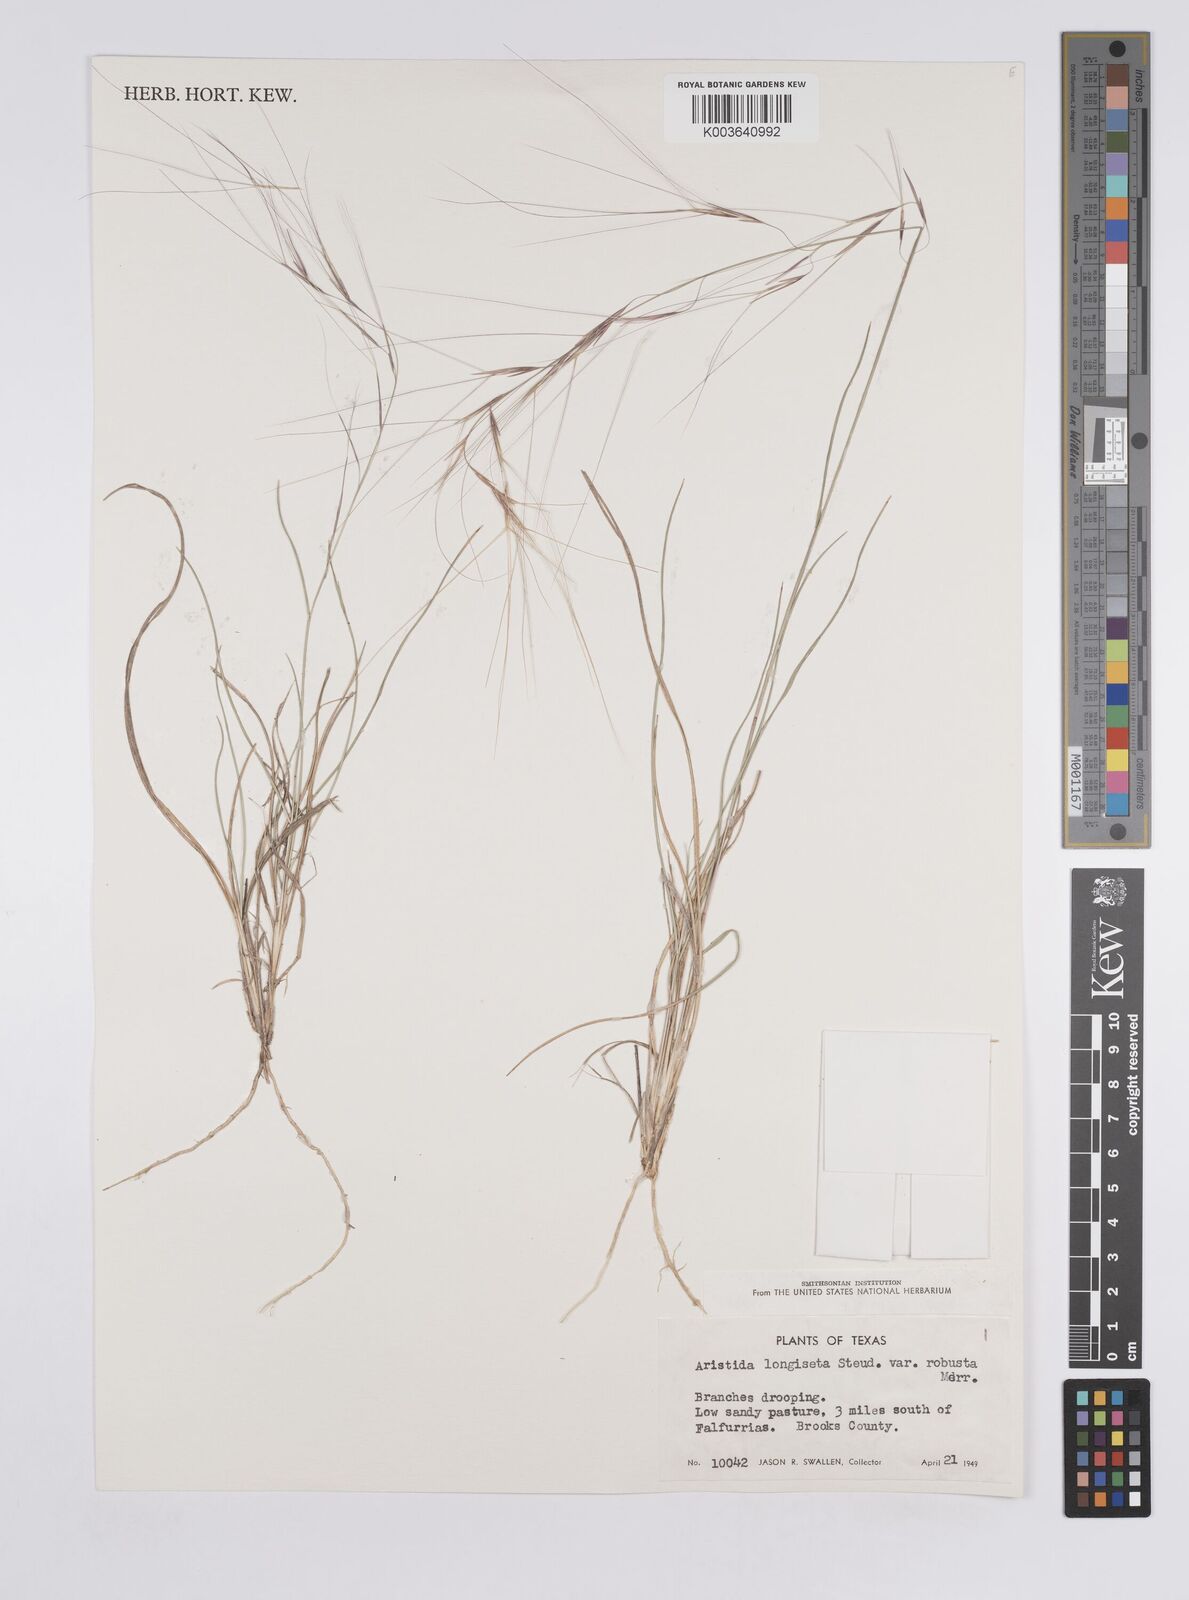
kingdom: Plantae
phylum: Tracheophyta
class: Liliopsida
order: Poales
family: Poaceae
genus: Aristida
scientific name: Aristida purpurea
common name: Purple threeawn
